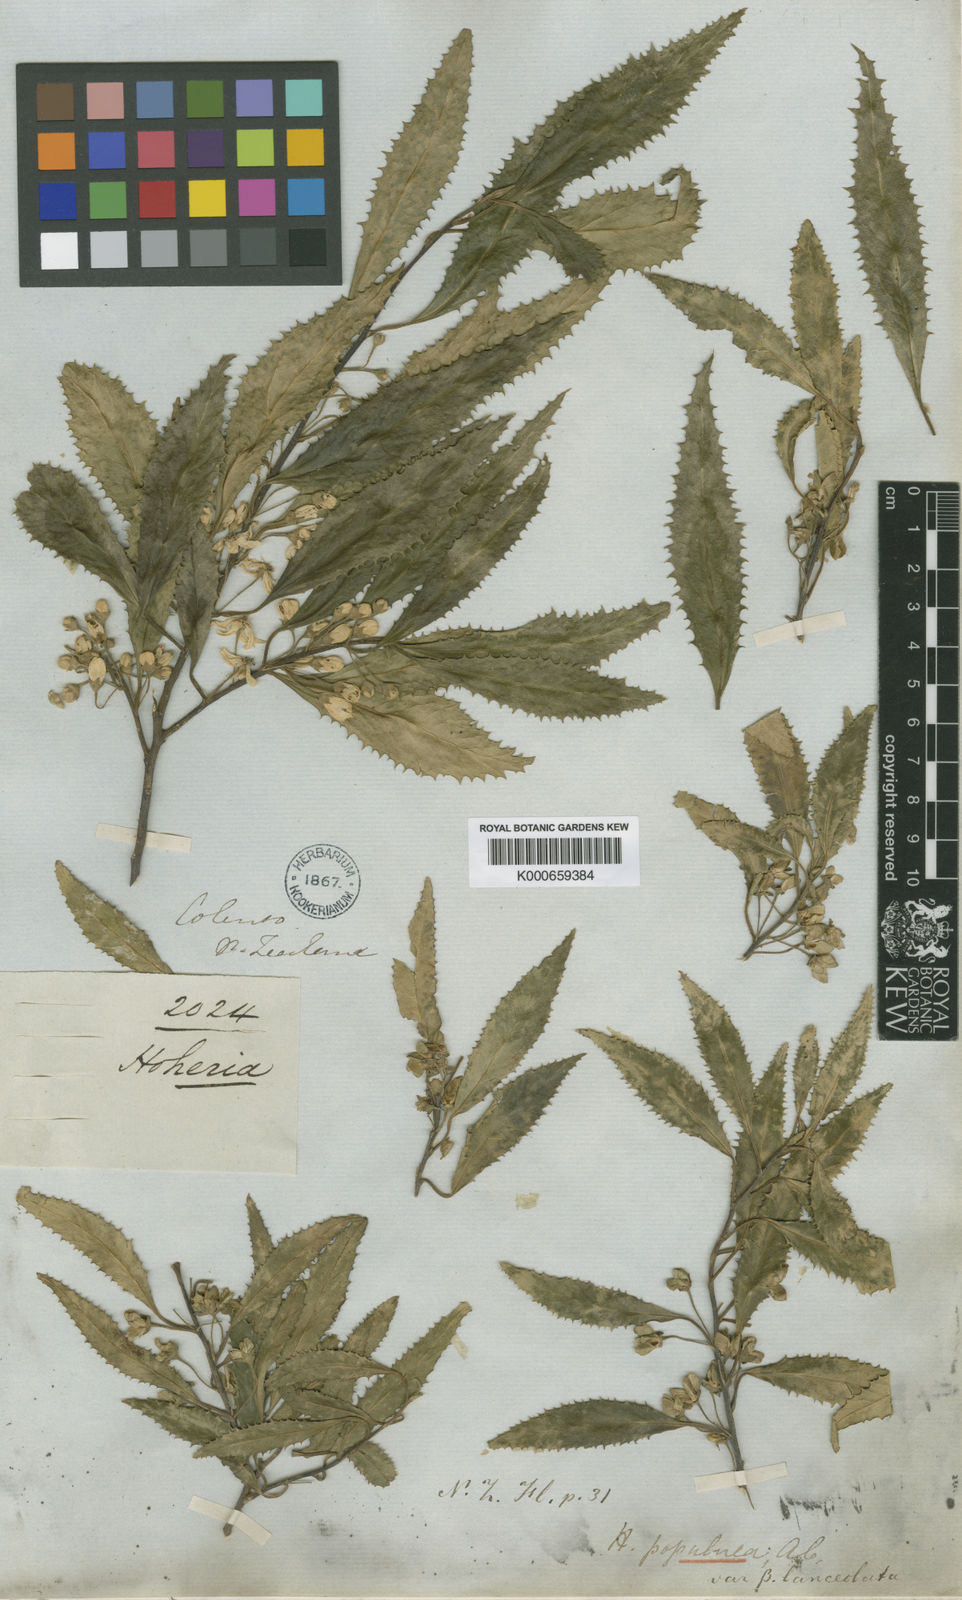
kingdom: Plantae
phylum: Tracheophyta
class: Magnoliopsida
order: Malvales
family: Malvaceae
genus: Hoheria
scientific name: Hoheria sexstylosa
